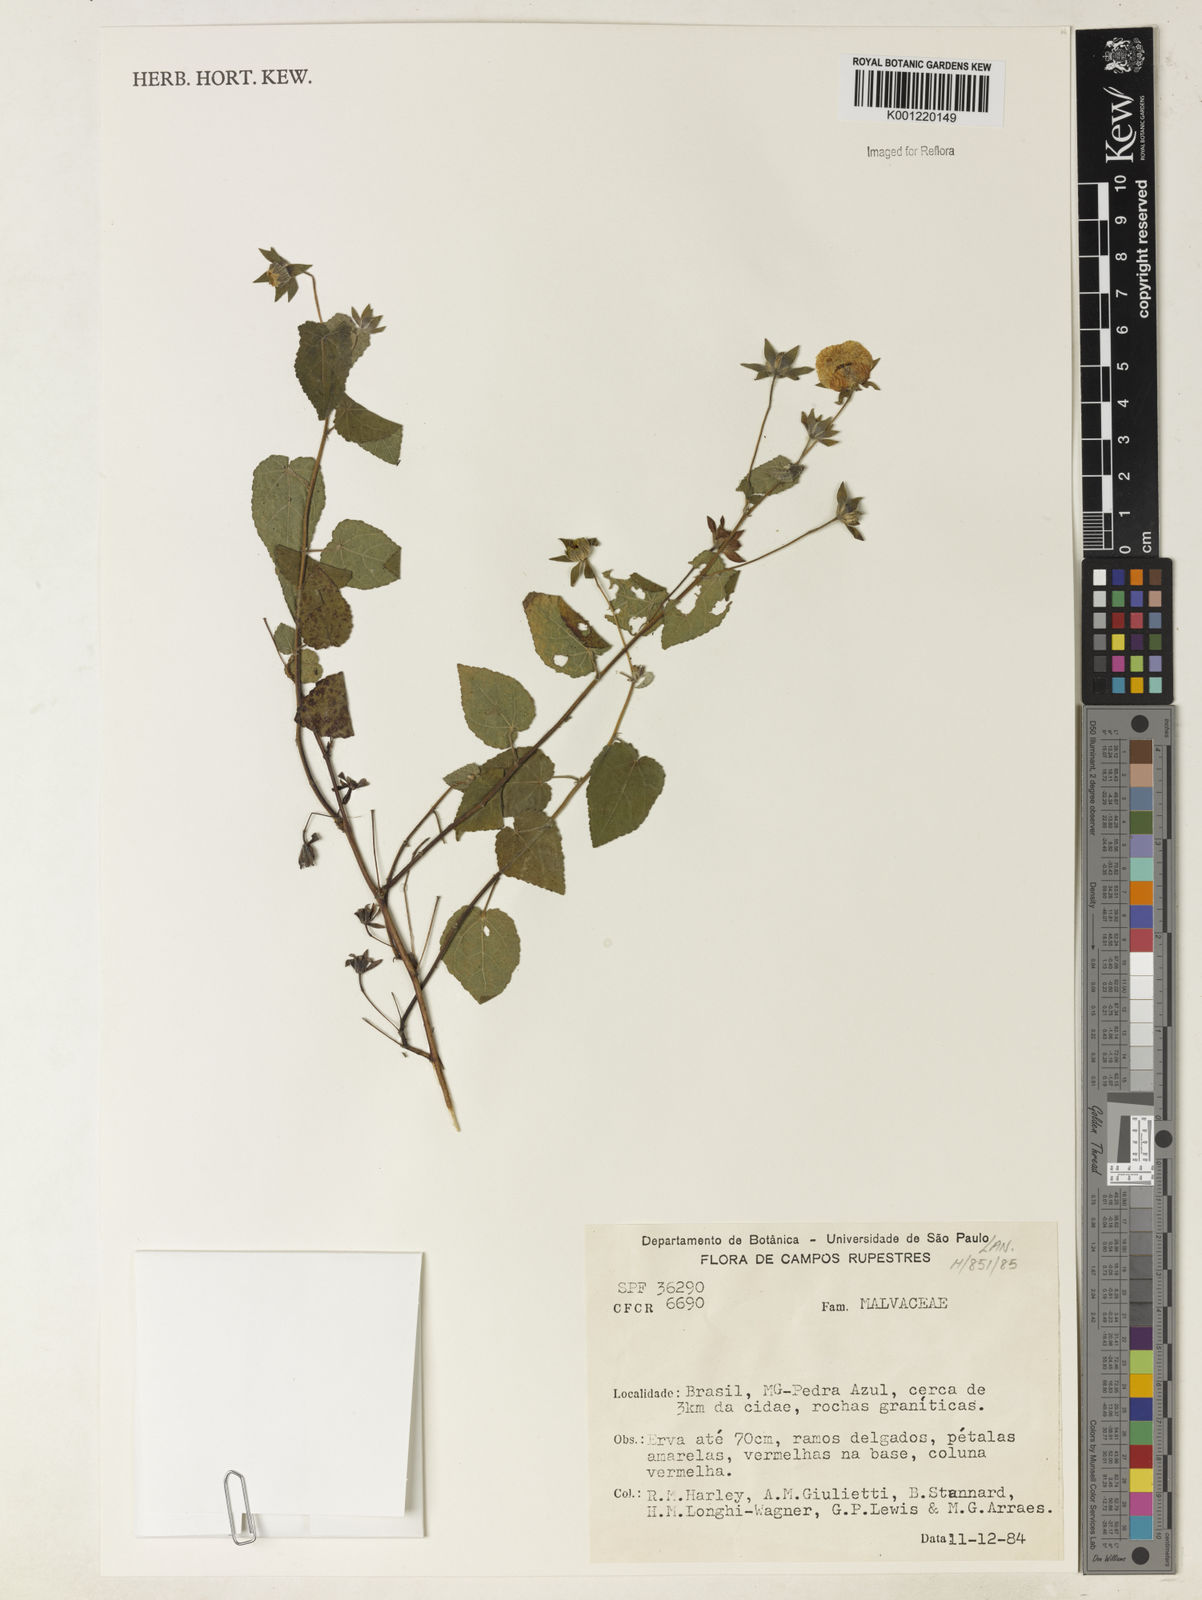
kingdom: Plantae
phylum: Tracheophyta
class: Magnoliopsida
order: Malvales
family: Malvaceae
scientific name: Malvaceae
